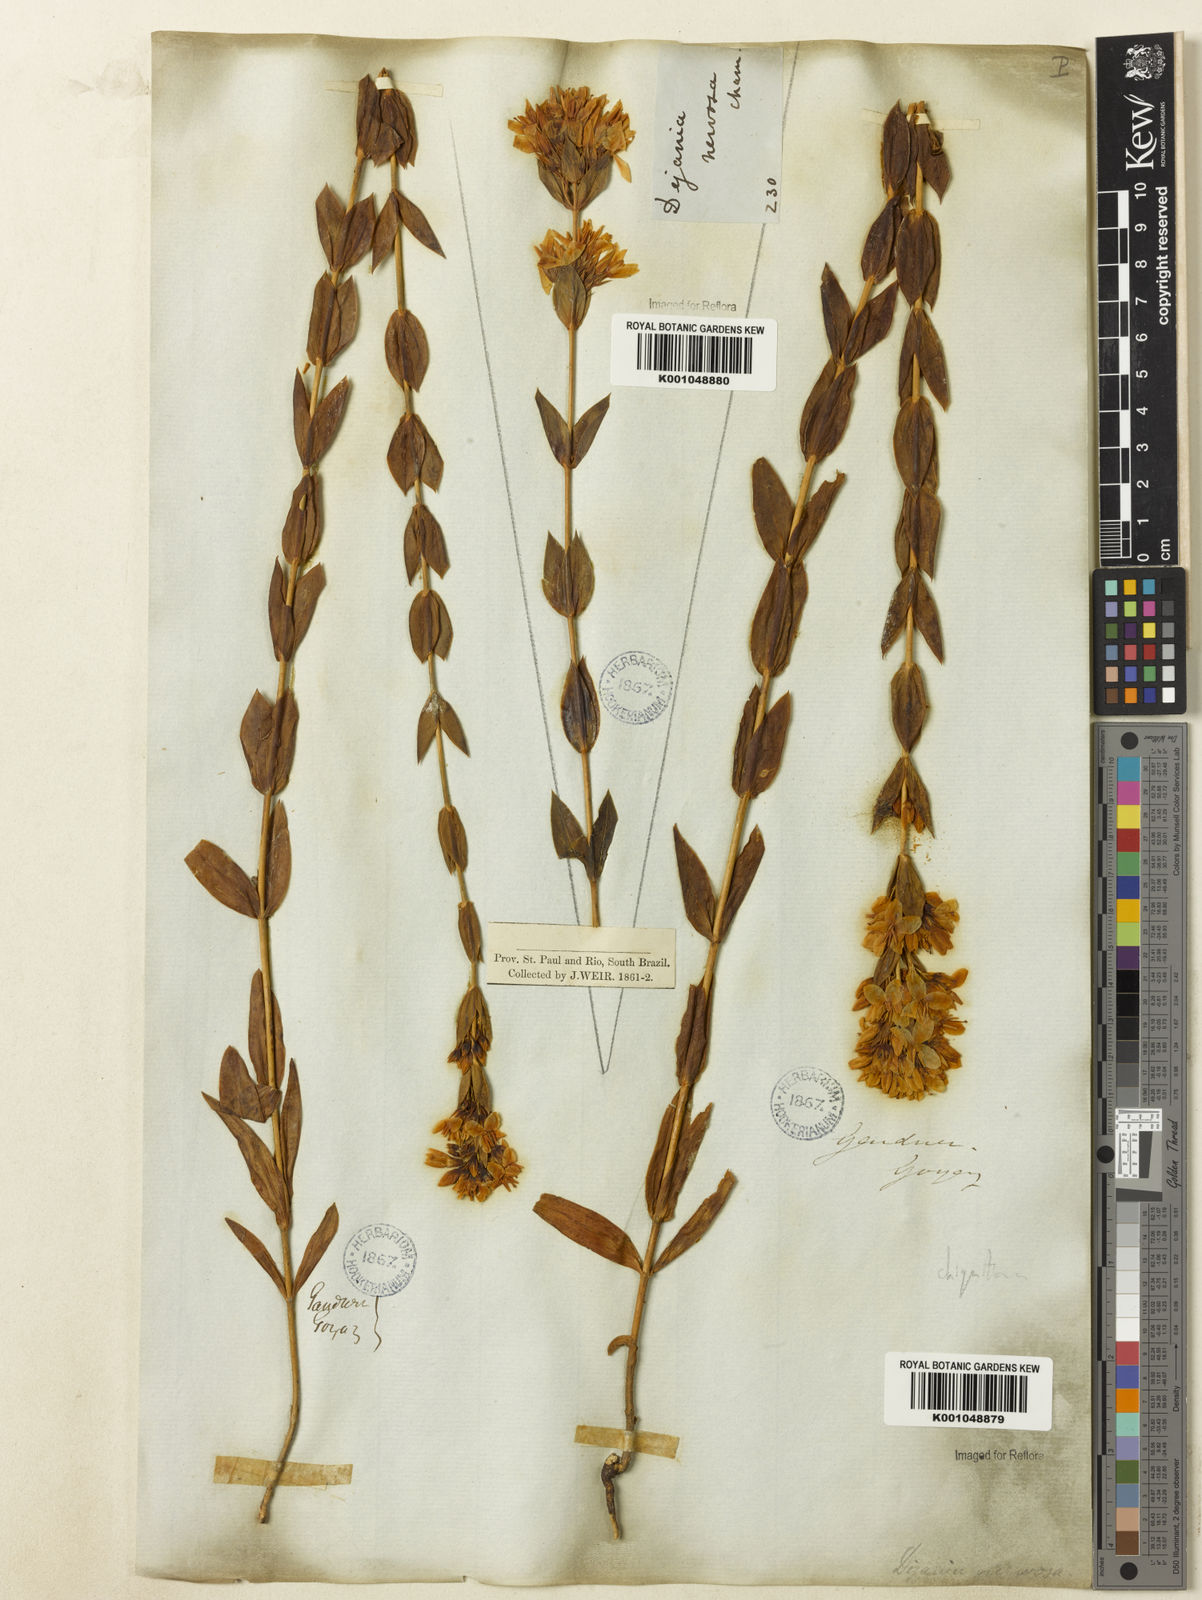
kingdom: Plantae
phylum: Tracheophyta
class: Magnoliopsida
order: Gentianales
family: Gentianaceae
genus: Deianira
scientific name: Deianira chiquitana
